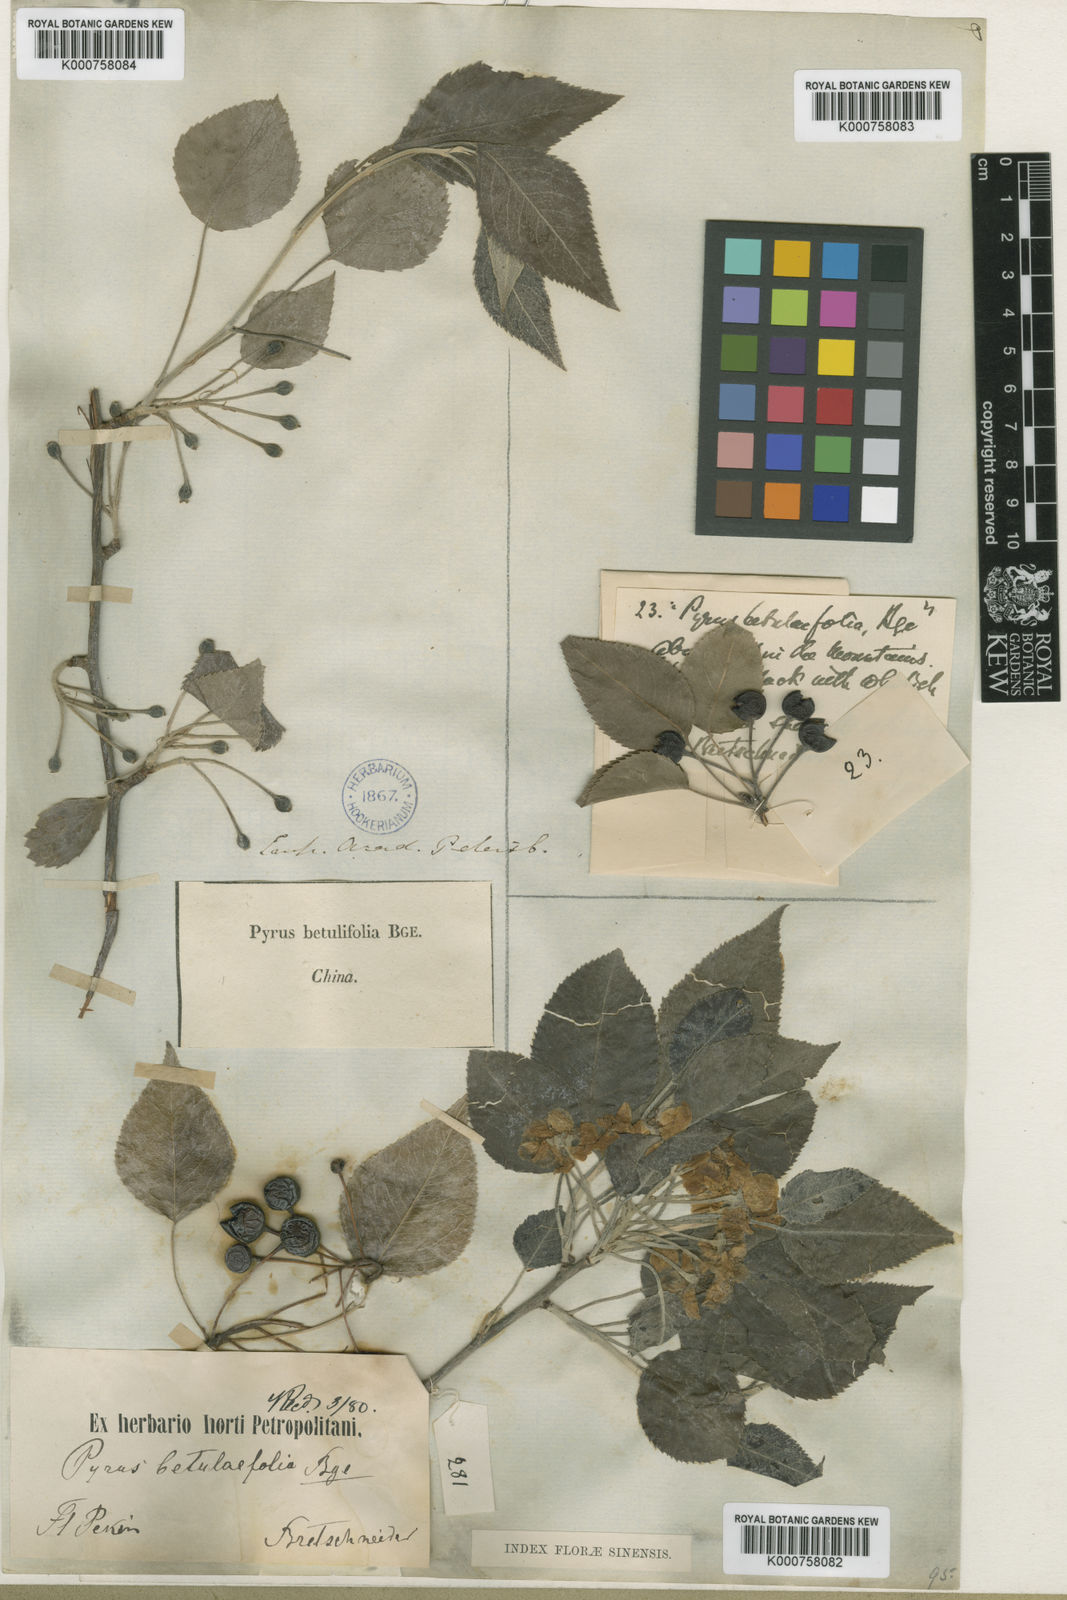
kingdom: Plantae
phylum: Tracheophyta
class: Magnoliopsida
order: Rosales
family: Rosaceae
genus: Pyrus
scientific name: Pyrus betulifolia
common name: Birch-leaf pear
